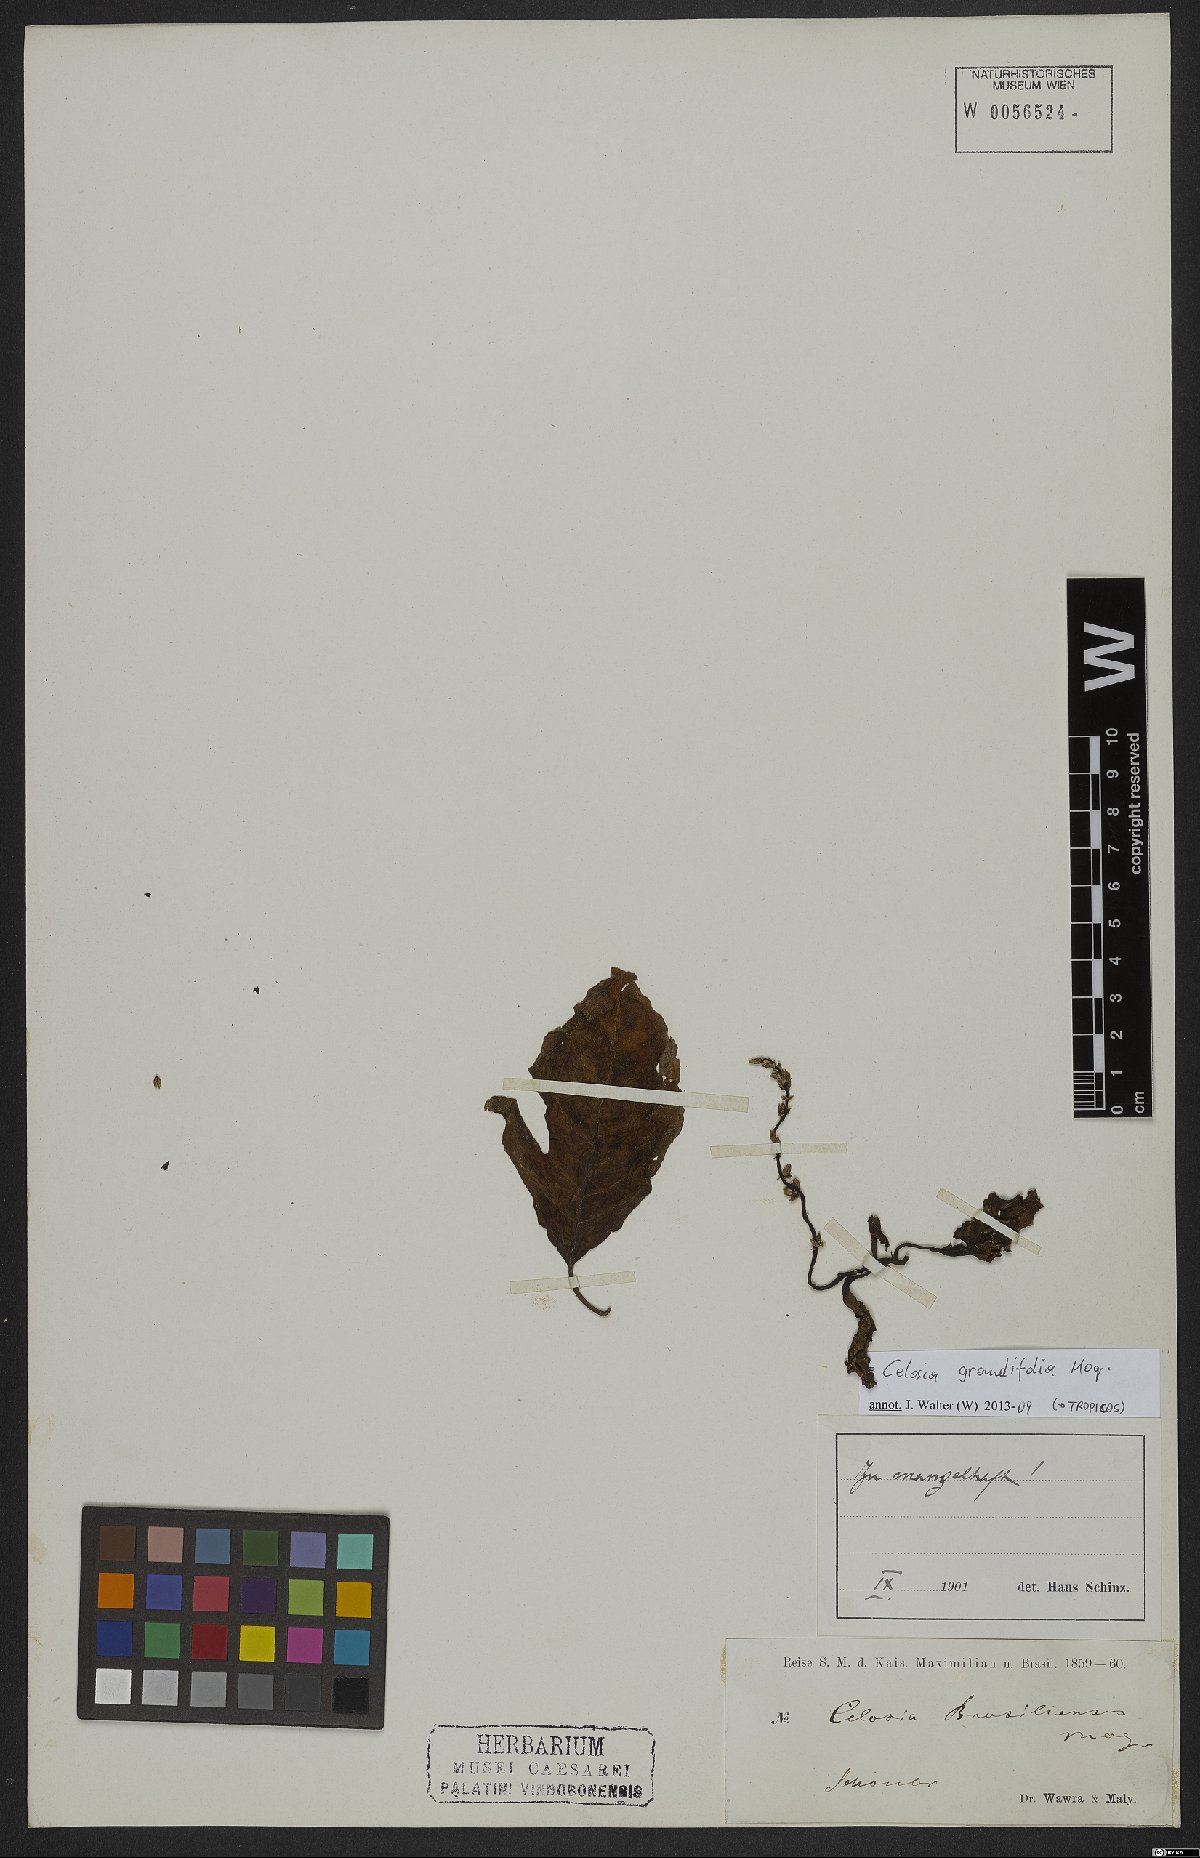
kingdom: Plantae
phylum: Tracheophyta
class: Magnoliopsida
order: Caryophyllales
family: Amaranthaceae
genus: Celosia
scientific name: Celosia grandifolia
